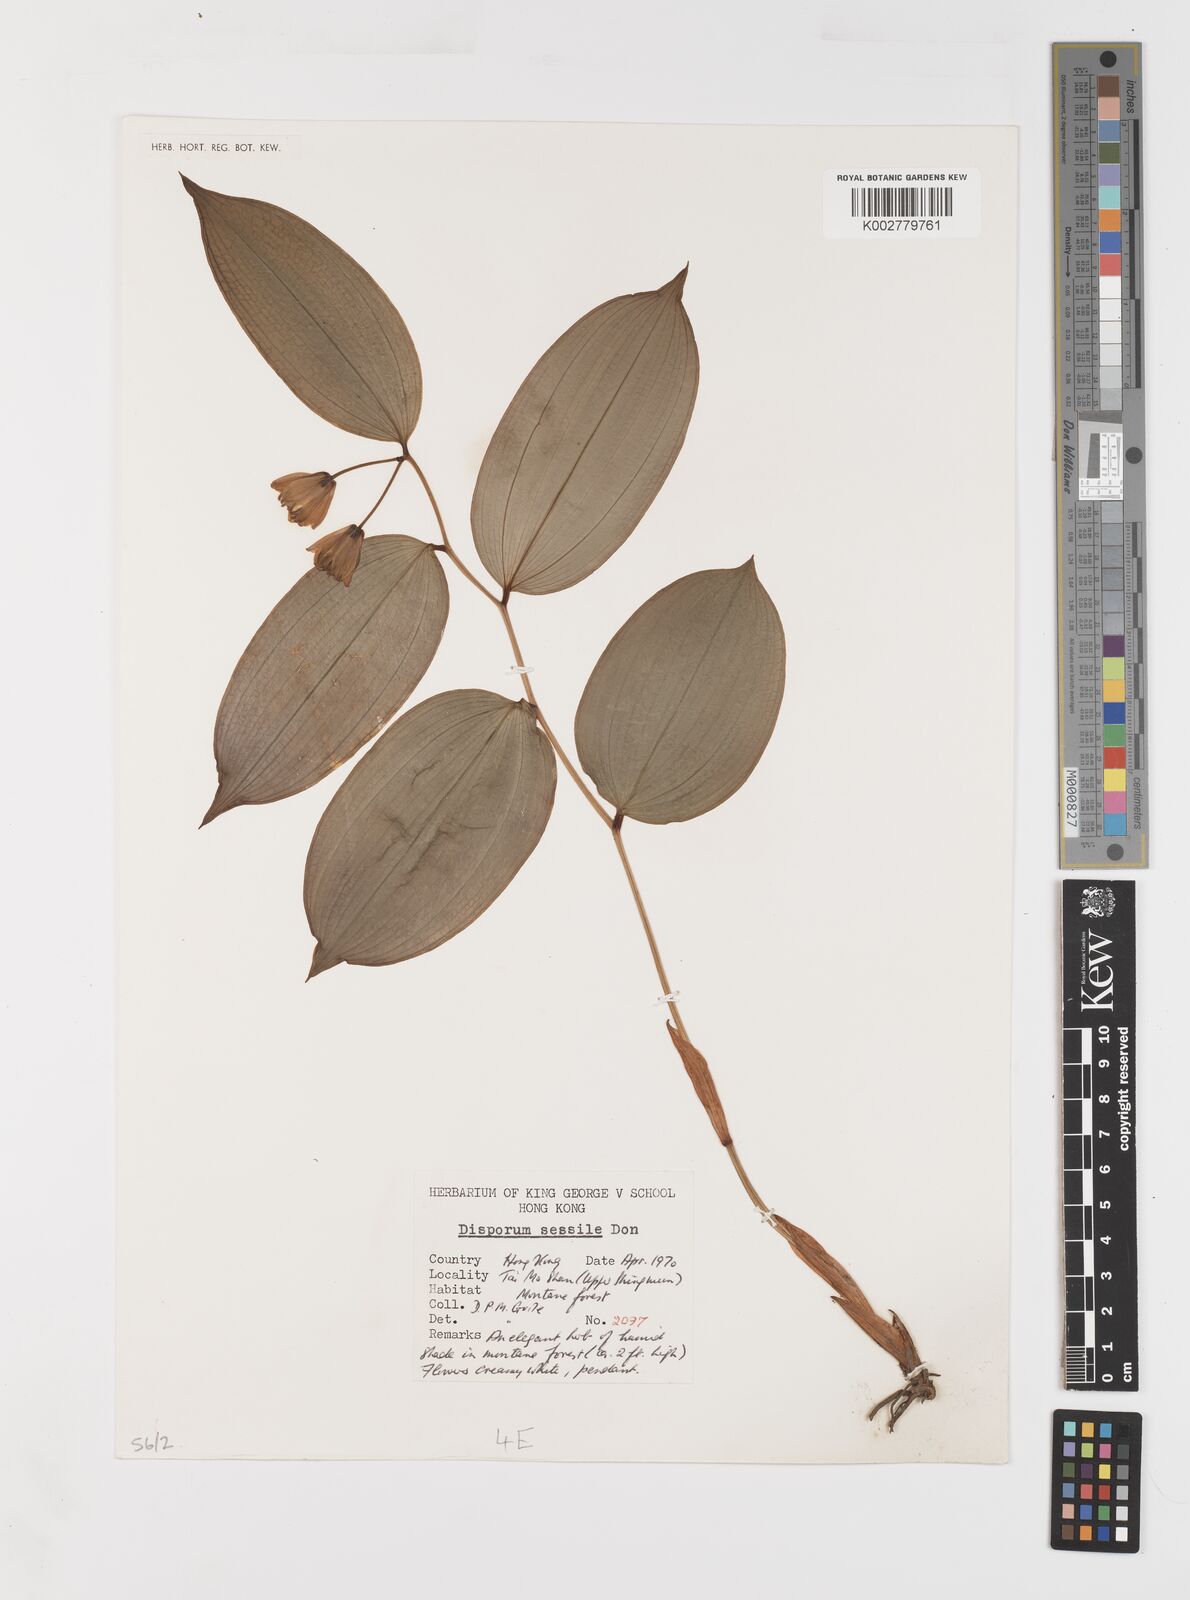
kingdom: Plantae
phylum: Tracheophyta
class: Liliopsida
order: Liliales
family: Colchicaceae
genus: Disporum
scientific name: Disporum sessile
